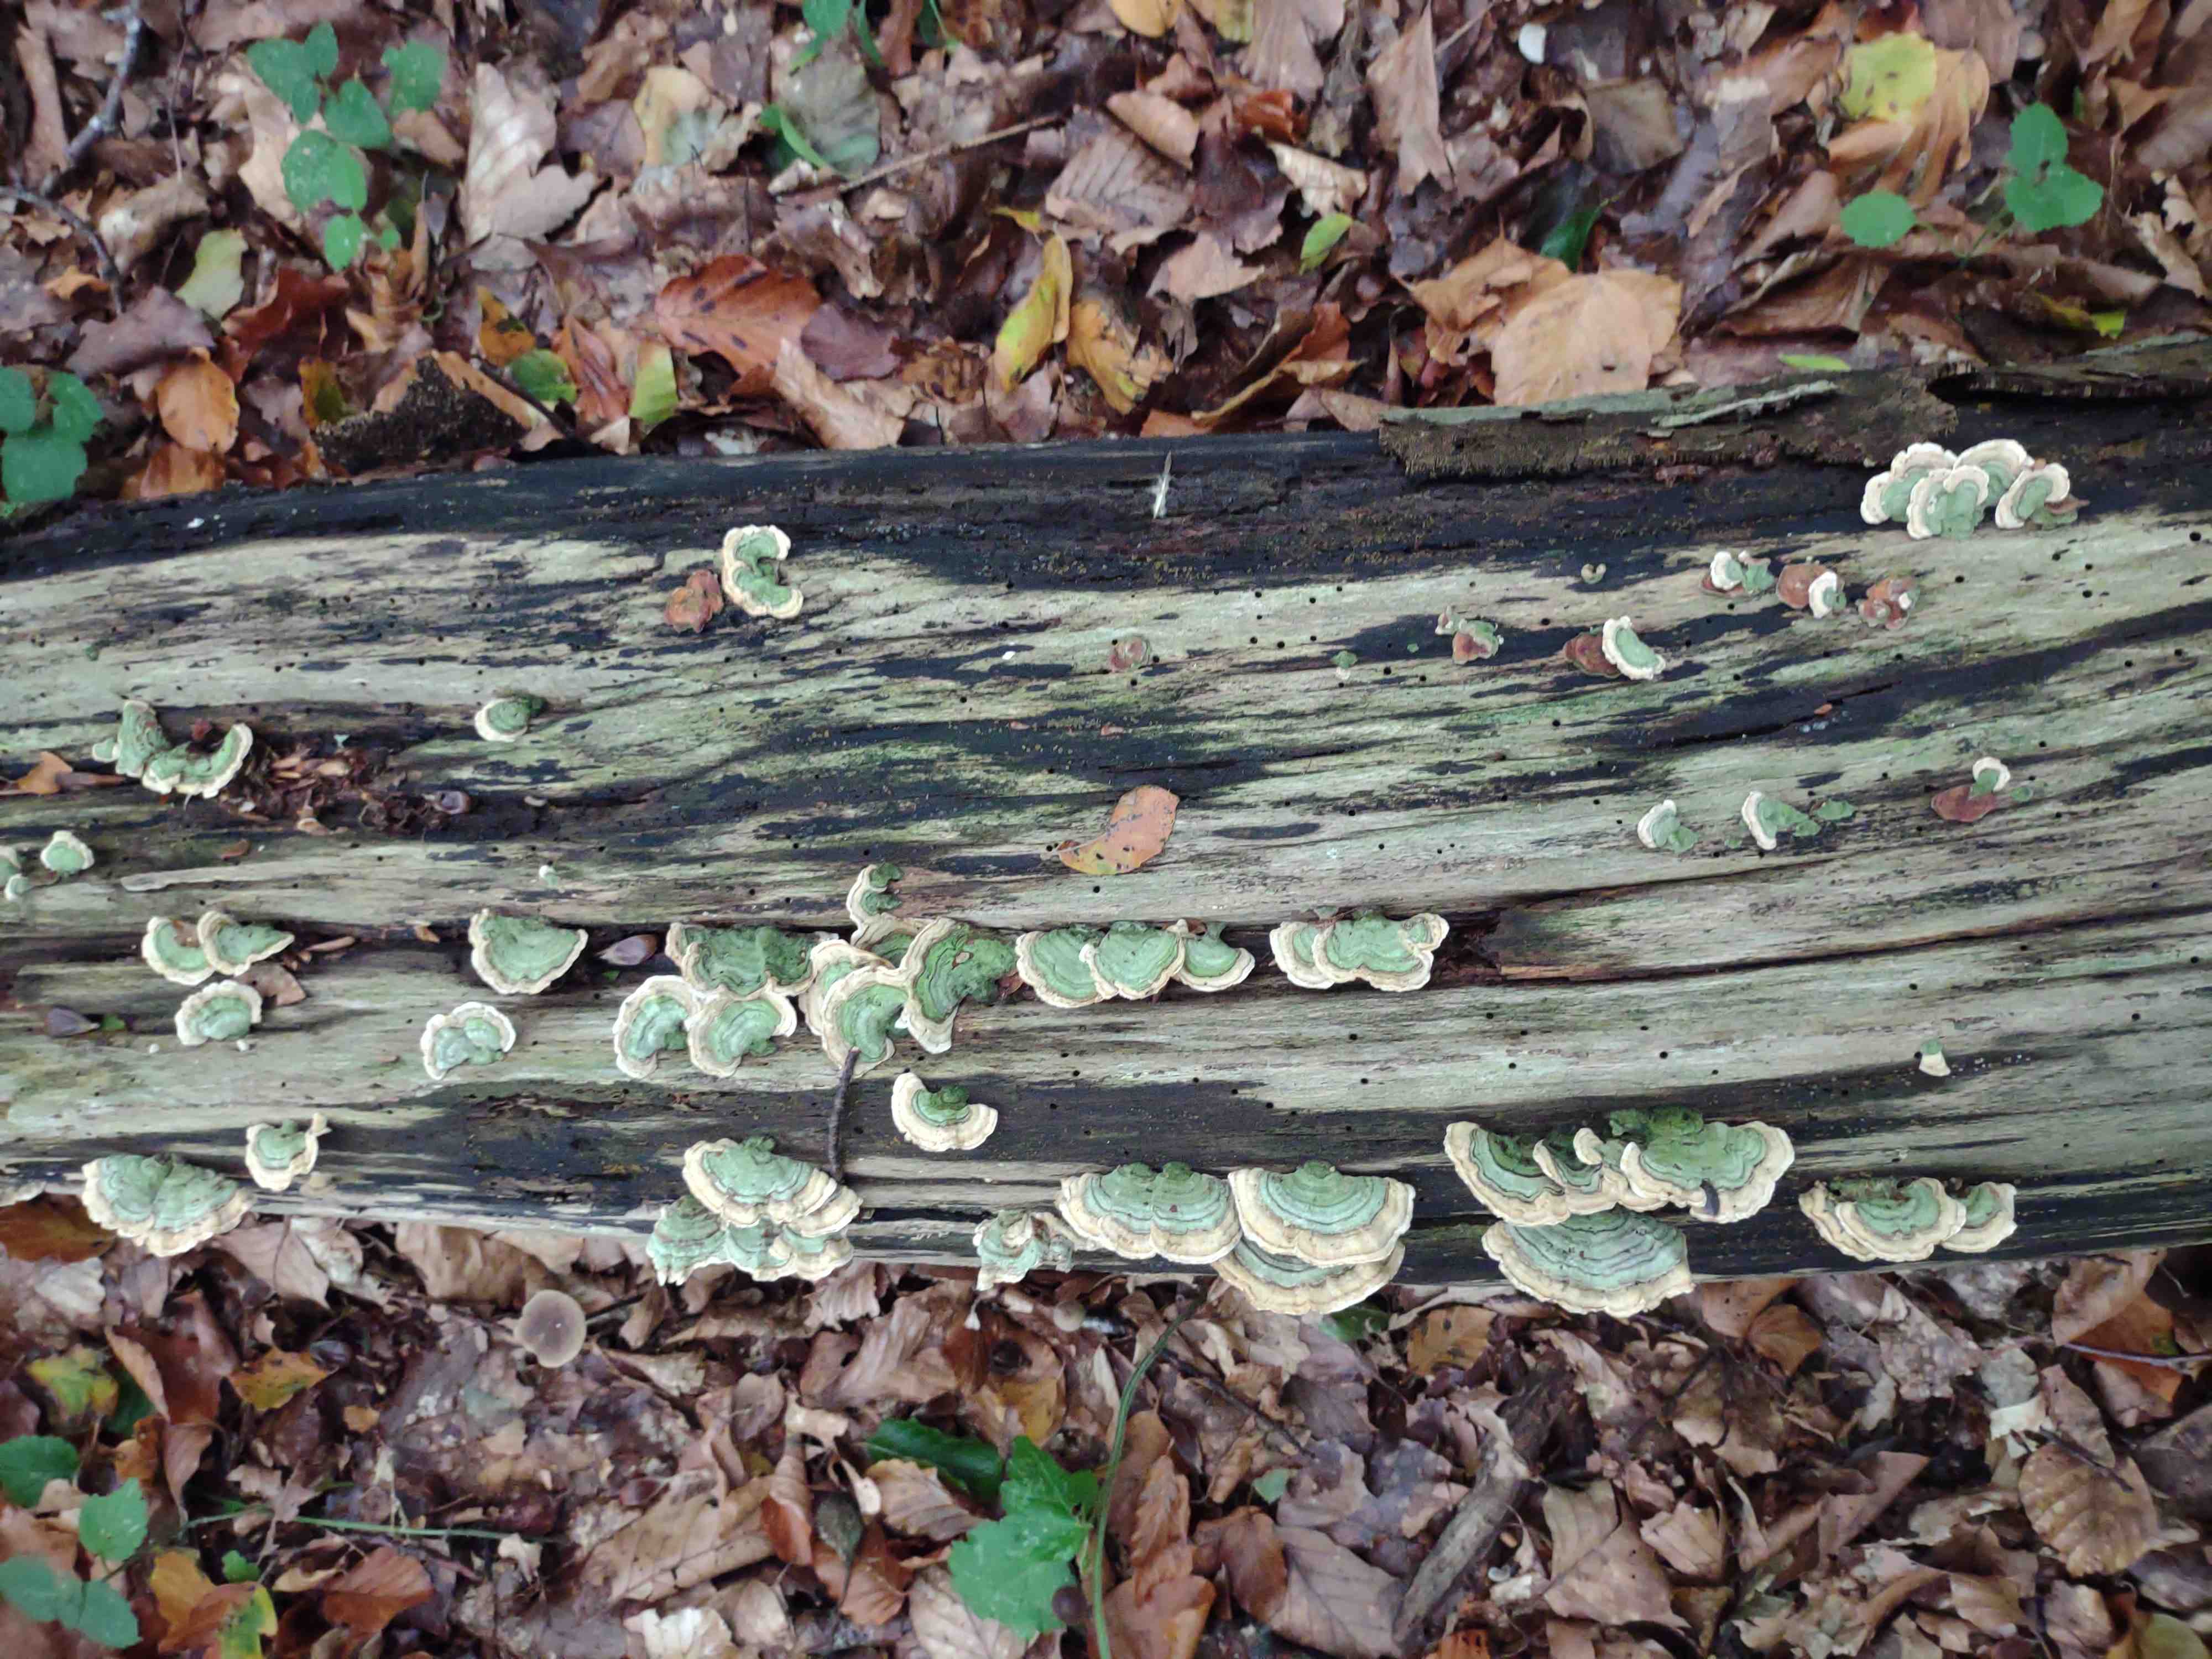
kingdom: Fungi
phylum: Basidiomycota
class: Agaricomycetes
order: Russulales
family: Stereaceae
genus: Stereum
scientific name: Stereum subtomentosum
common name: smuk lædersvamp
